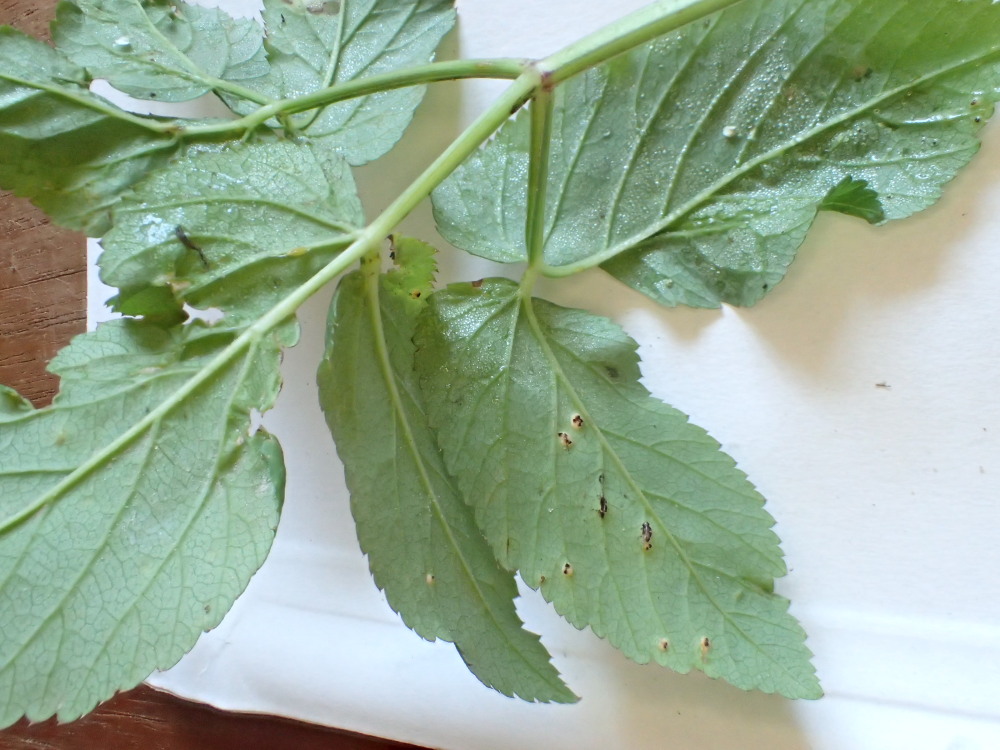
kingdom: Fungi
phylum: Basidiomycota
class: Pucciniomycetes
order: Pucciniales
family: Pucciniaceae
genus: Puccinia
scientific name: Puccinia
